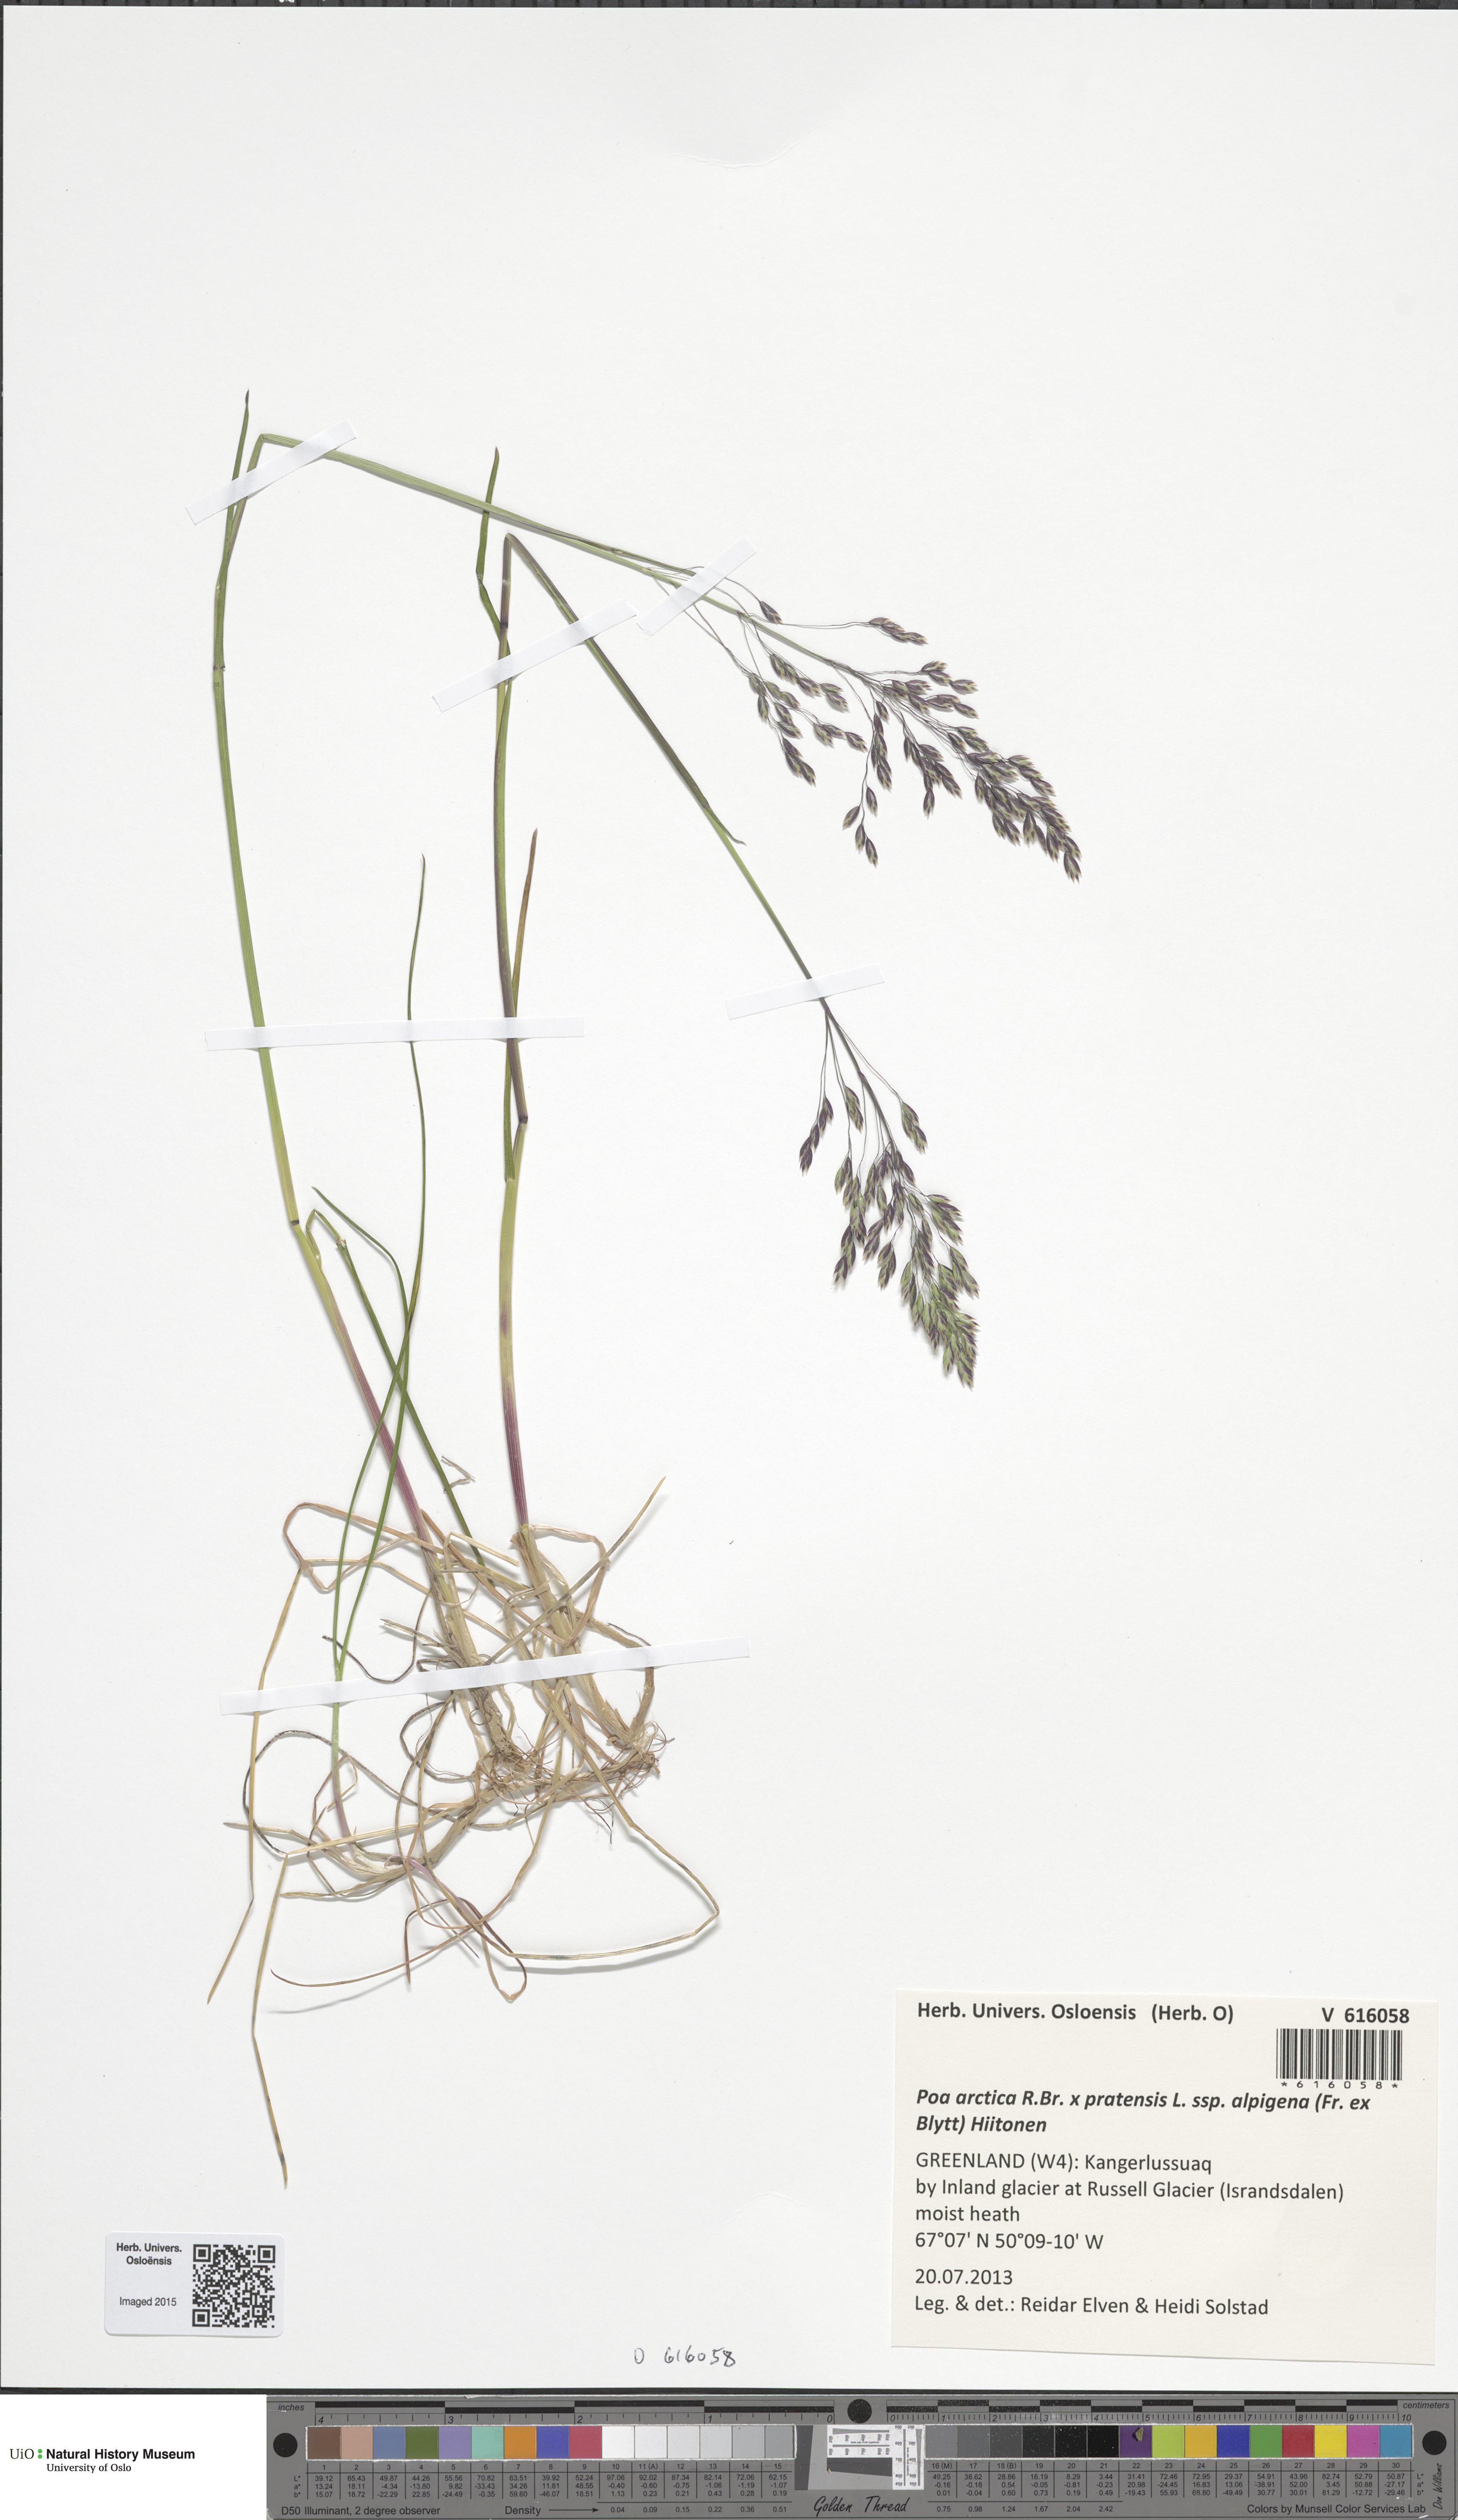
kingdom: Plantae
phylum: Tracheophyta
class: Liliopsida
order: Poales
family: Poaceae
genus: Poa
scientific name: Poa
